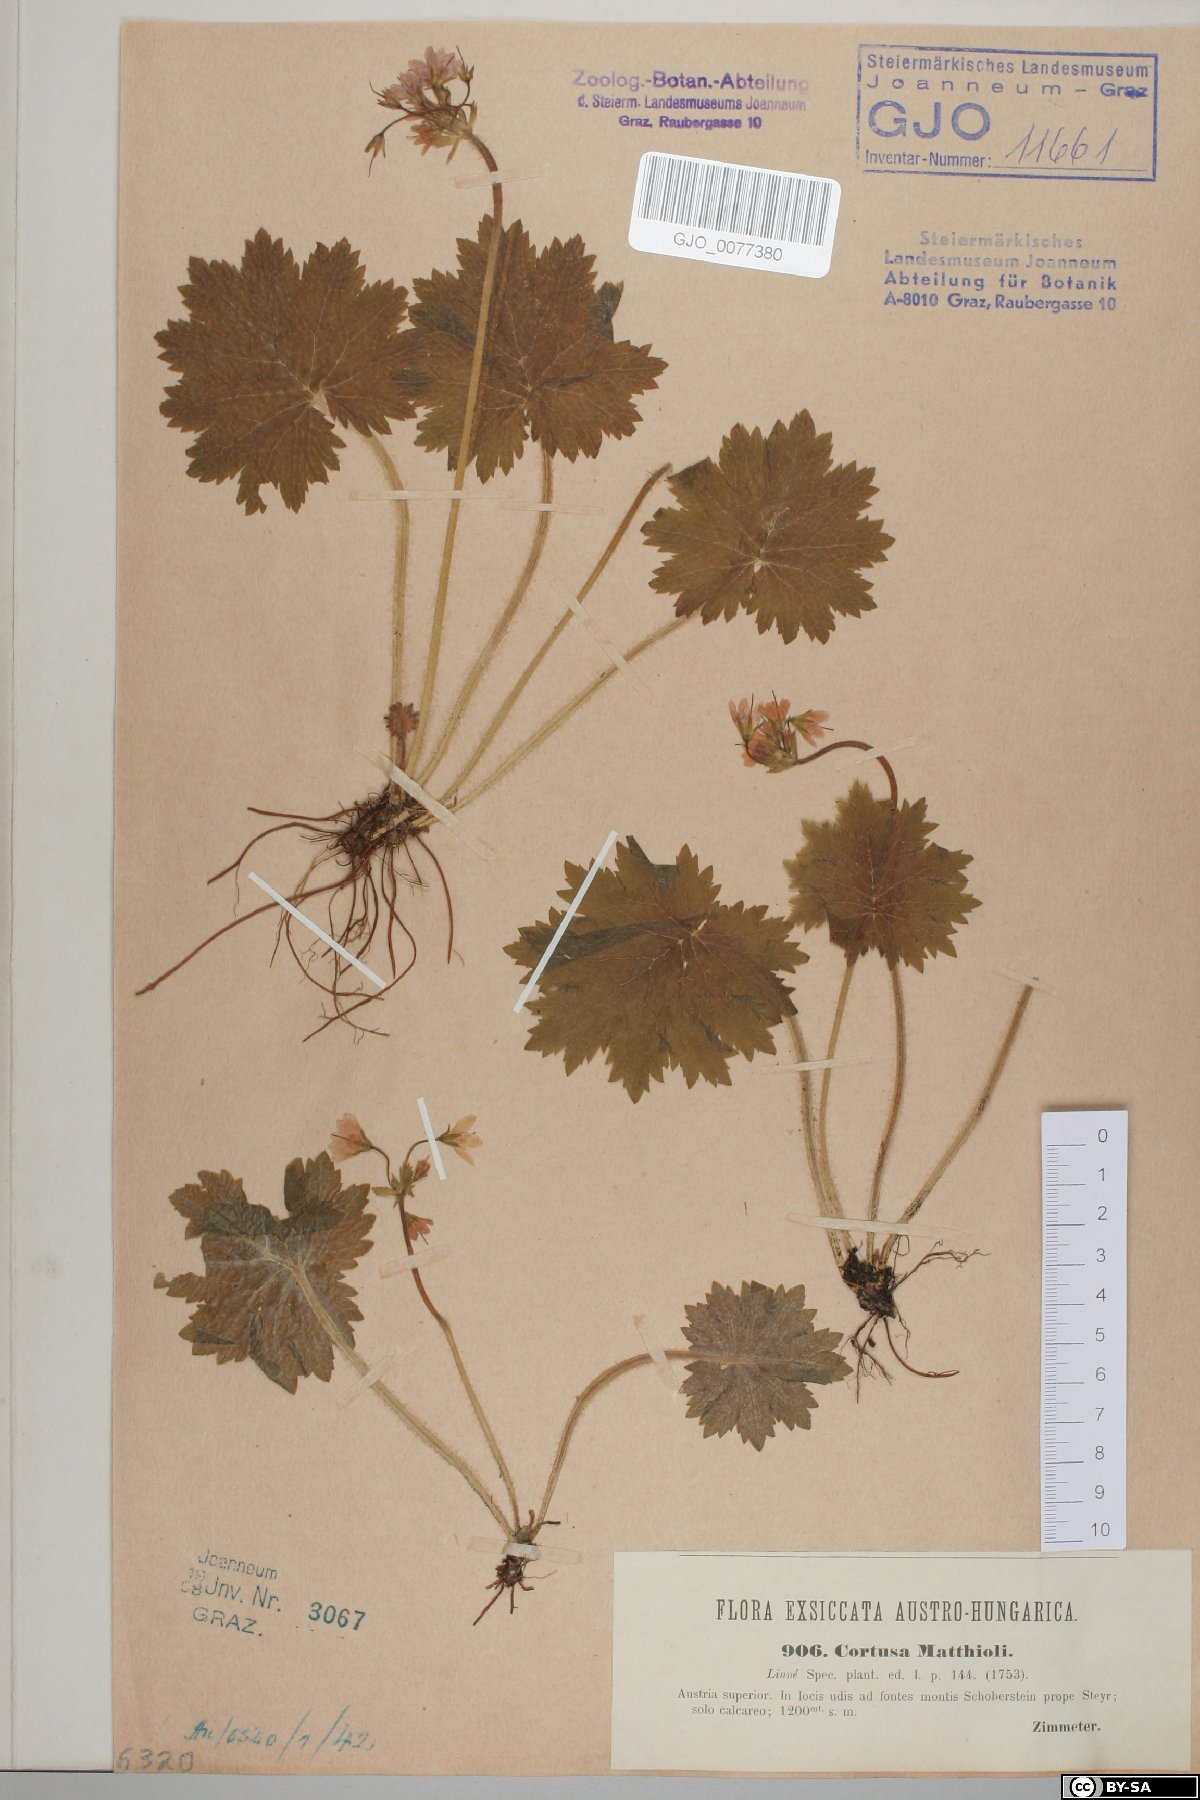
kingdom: Plantae
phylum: Tracheophyta
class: Magnoliopsida
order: Ericales
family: Primulaceae
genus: Primula
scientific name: Primula matthioli
